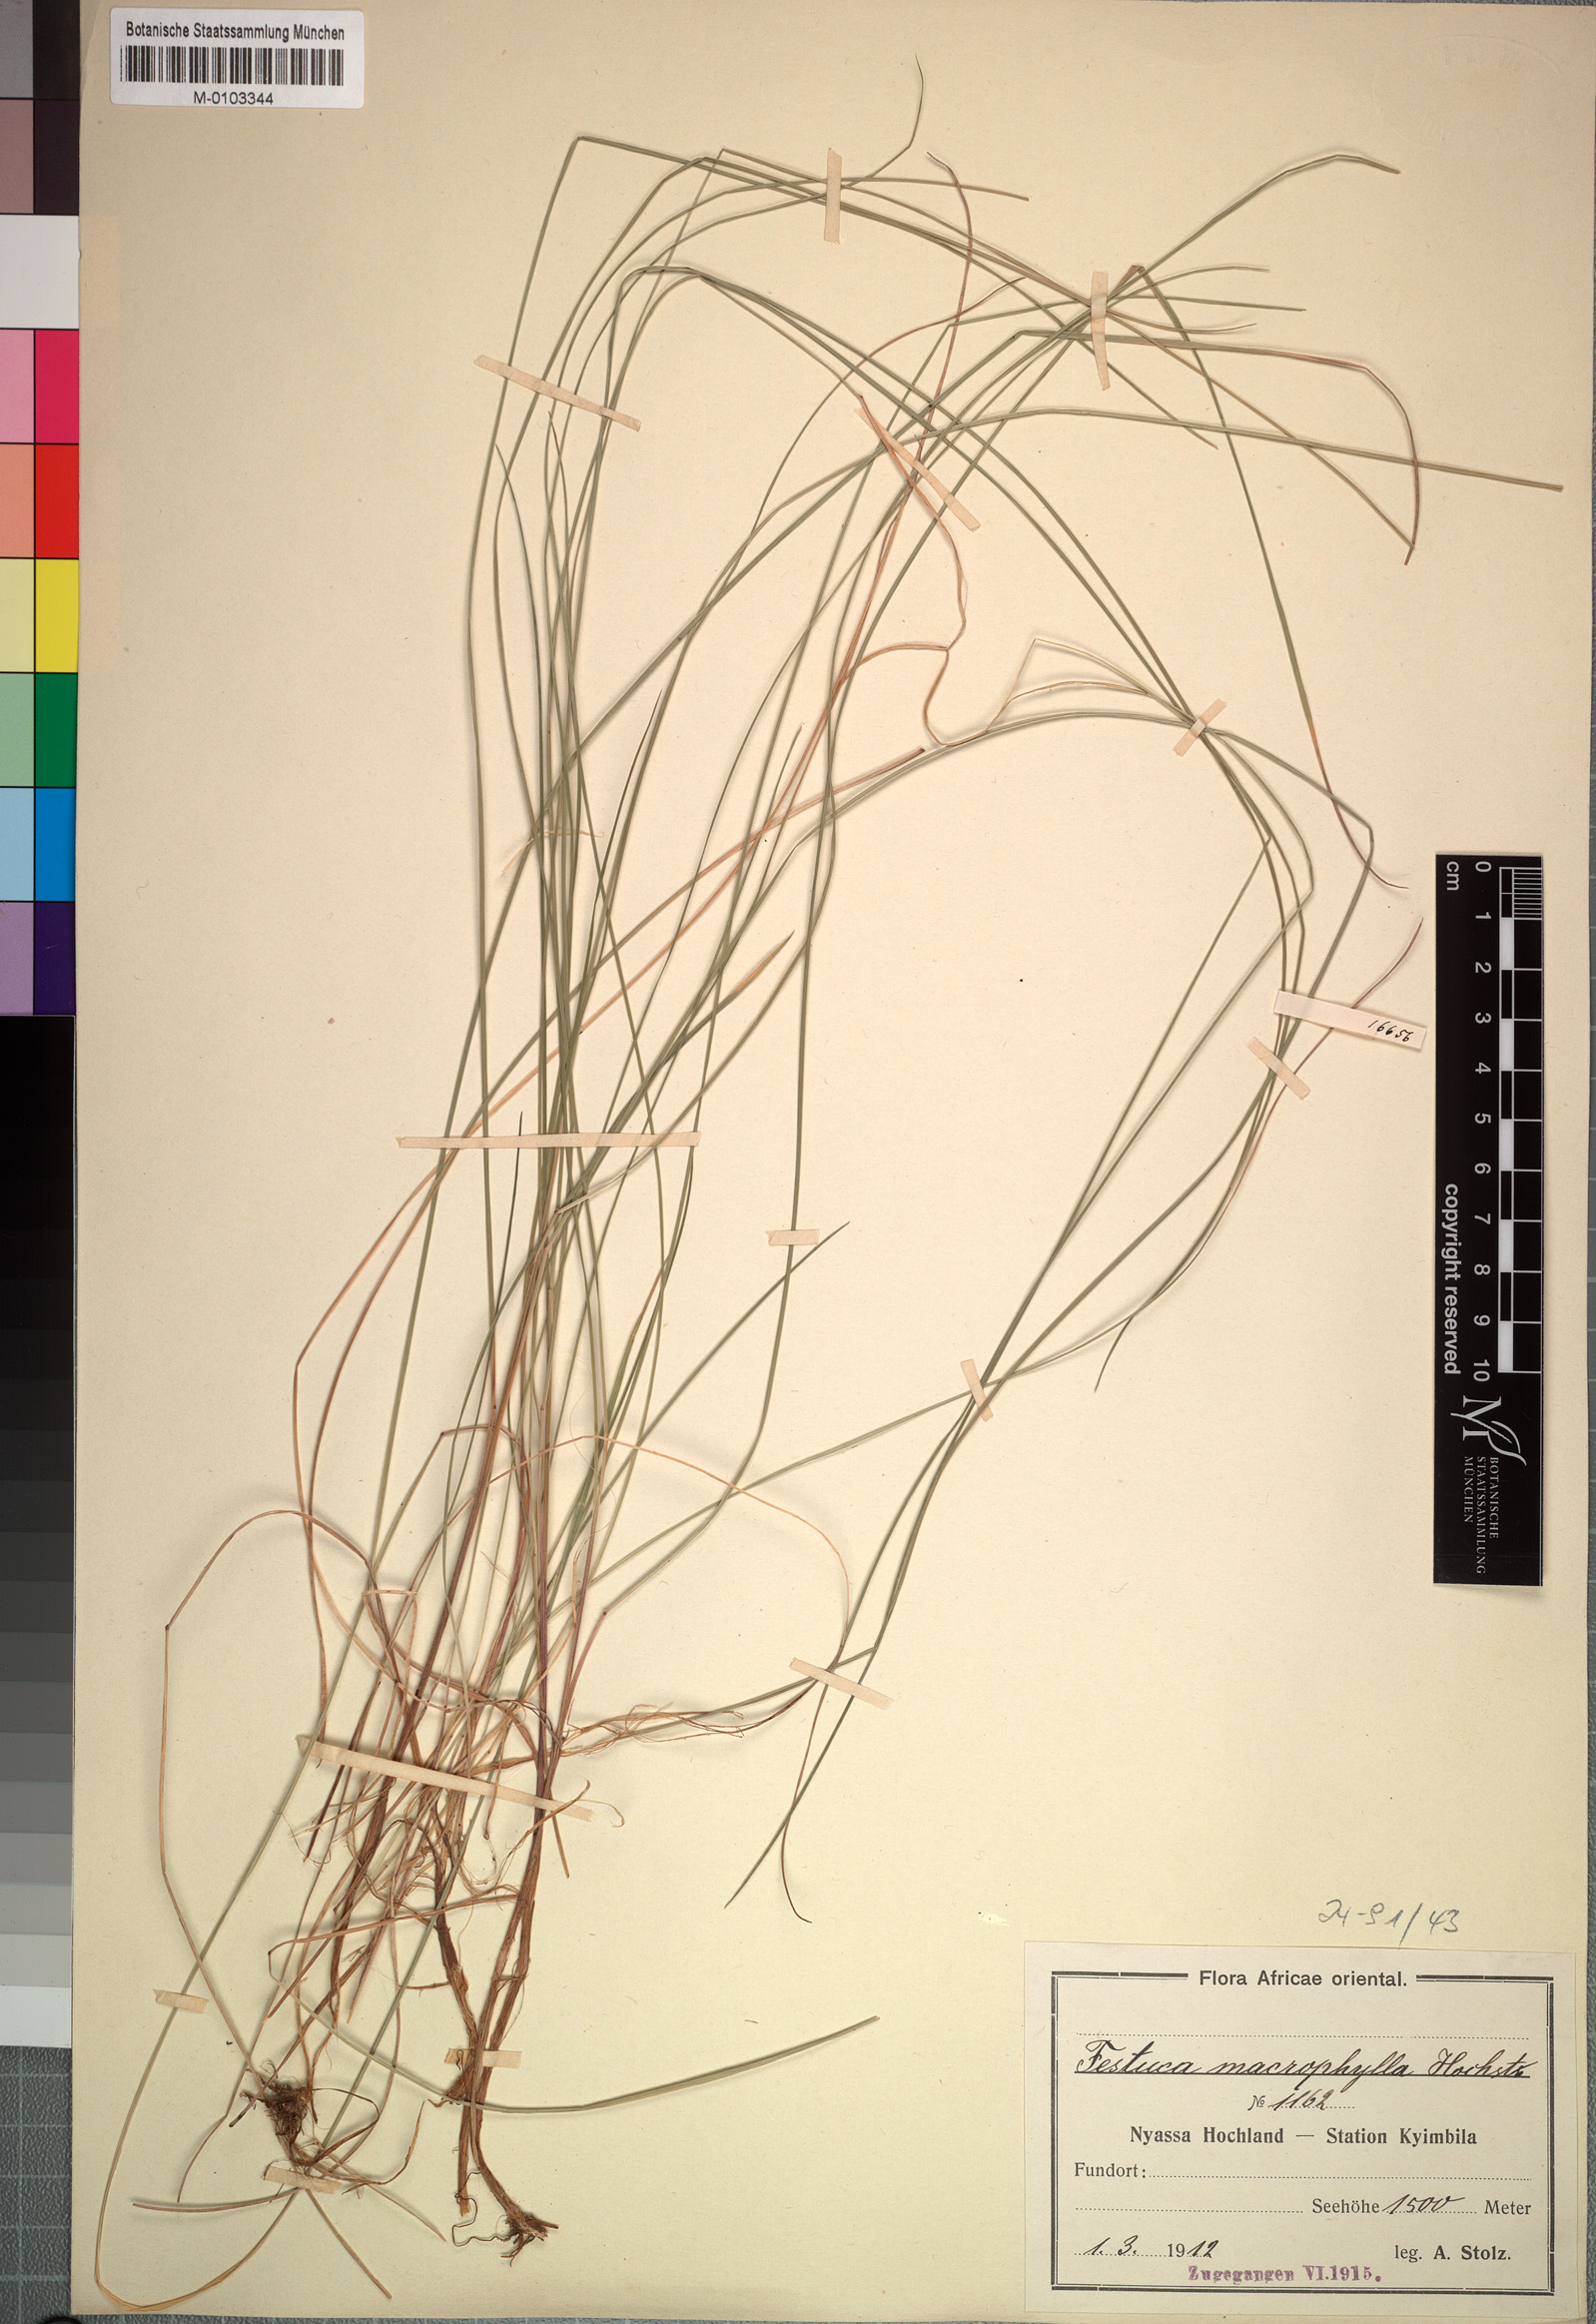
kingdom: Plantae
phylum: Tracheophyta
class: Liliopsida
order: Poales
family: Poaceae
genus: Festuca
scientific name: Festuca macrophylla
